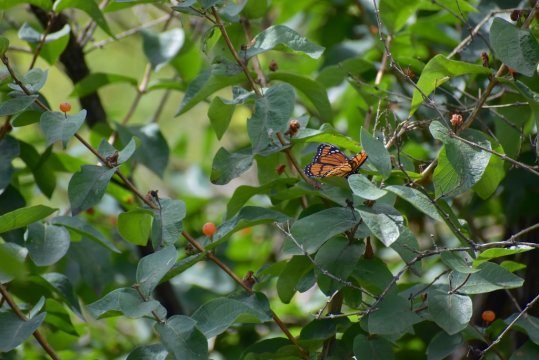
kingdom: Animalia
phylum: Arthropoda
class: Insecta
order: Lepidoptera
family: Nymphalidae
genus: Limenitis
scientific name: Limenitis archippus
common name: Viceroy
